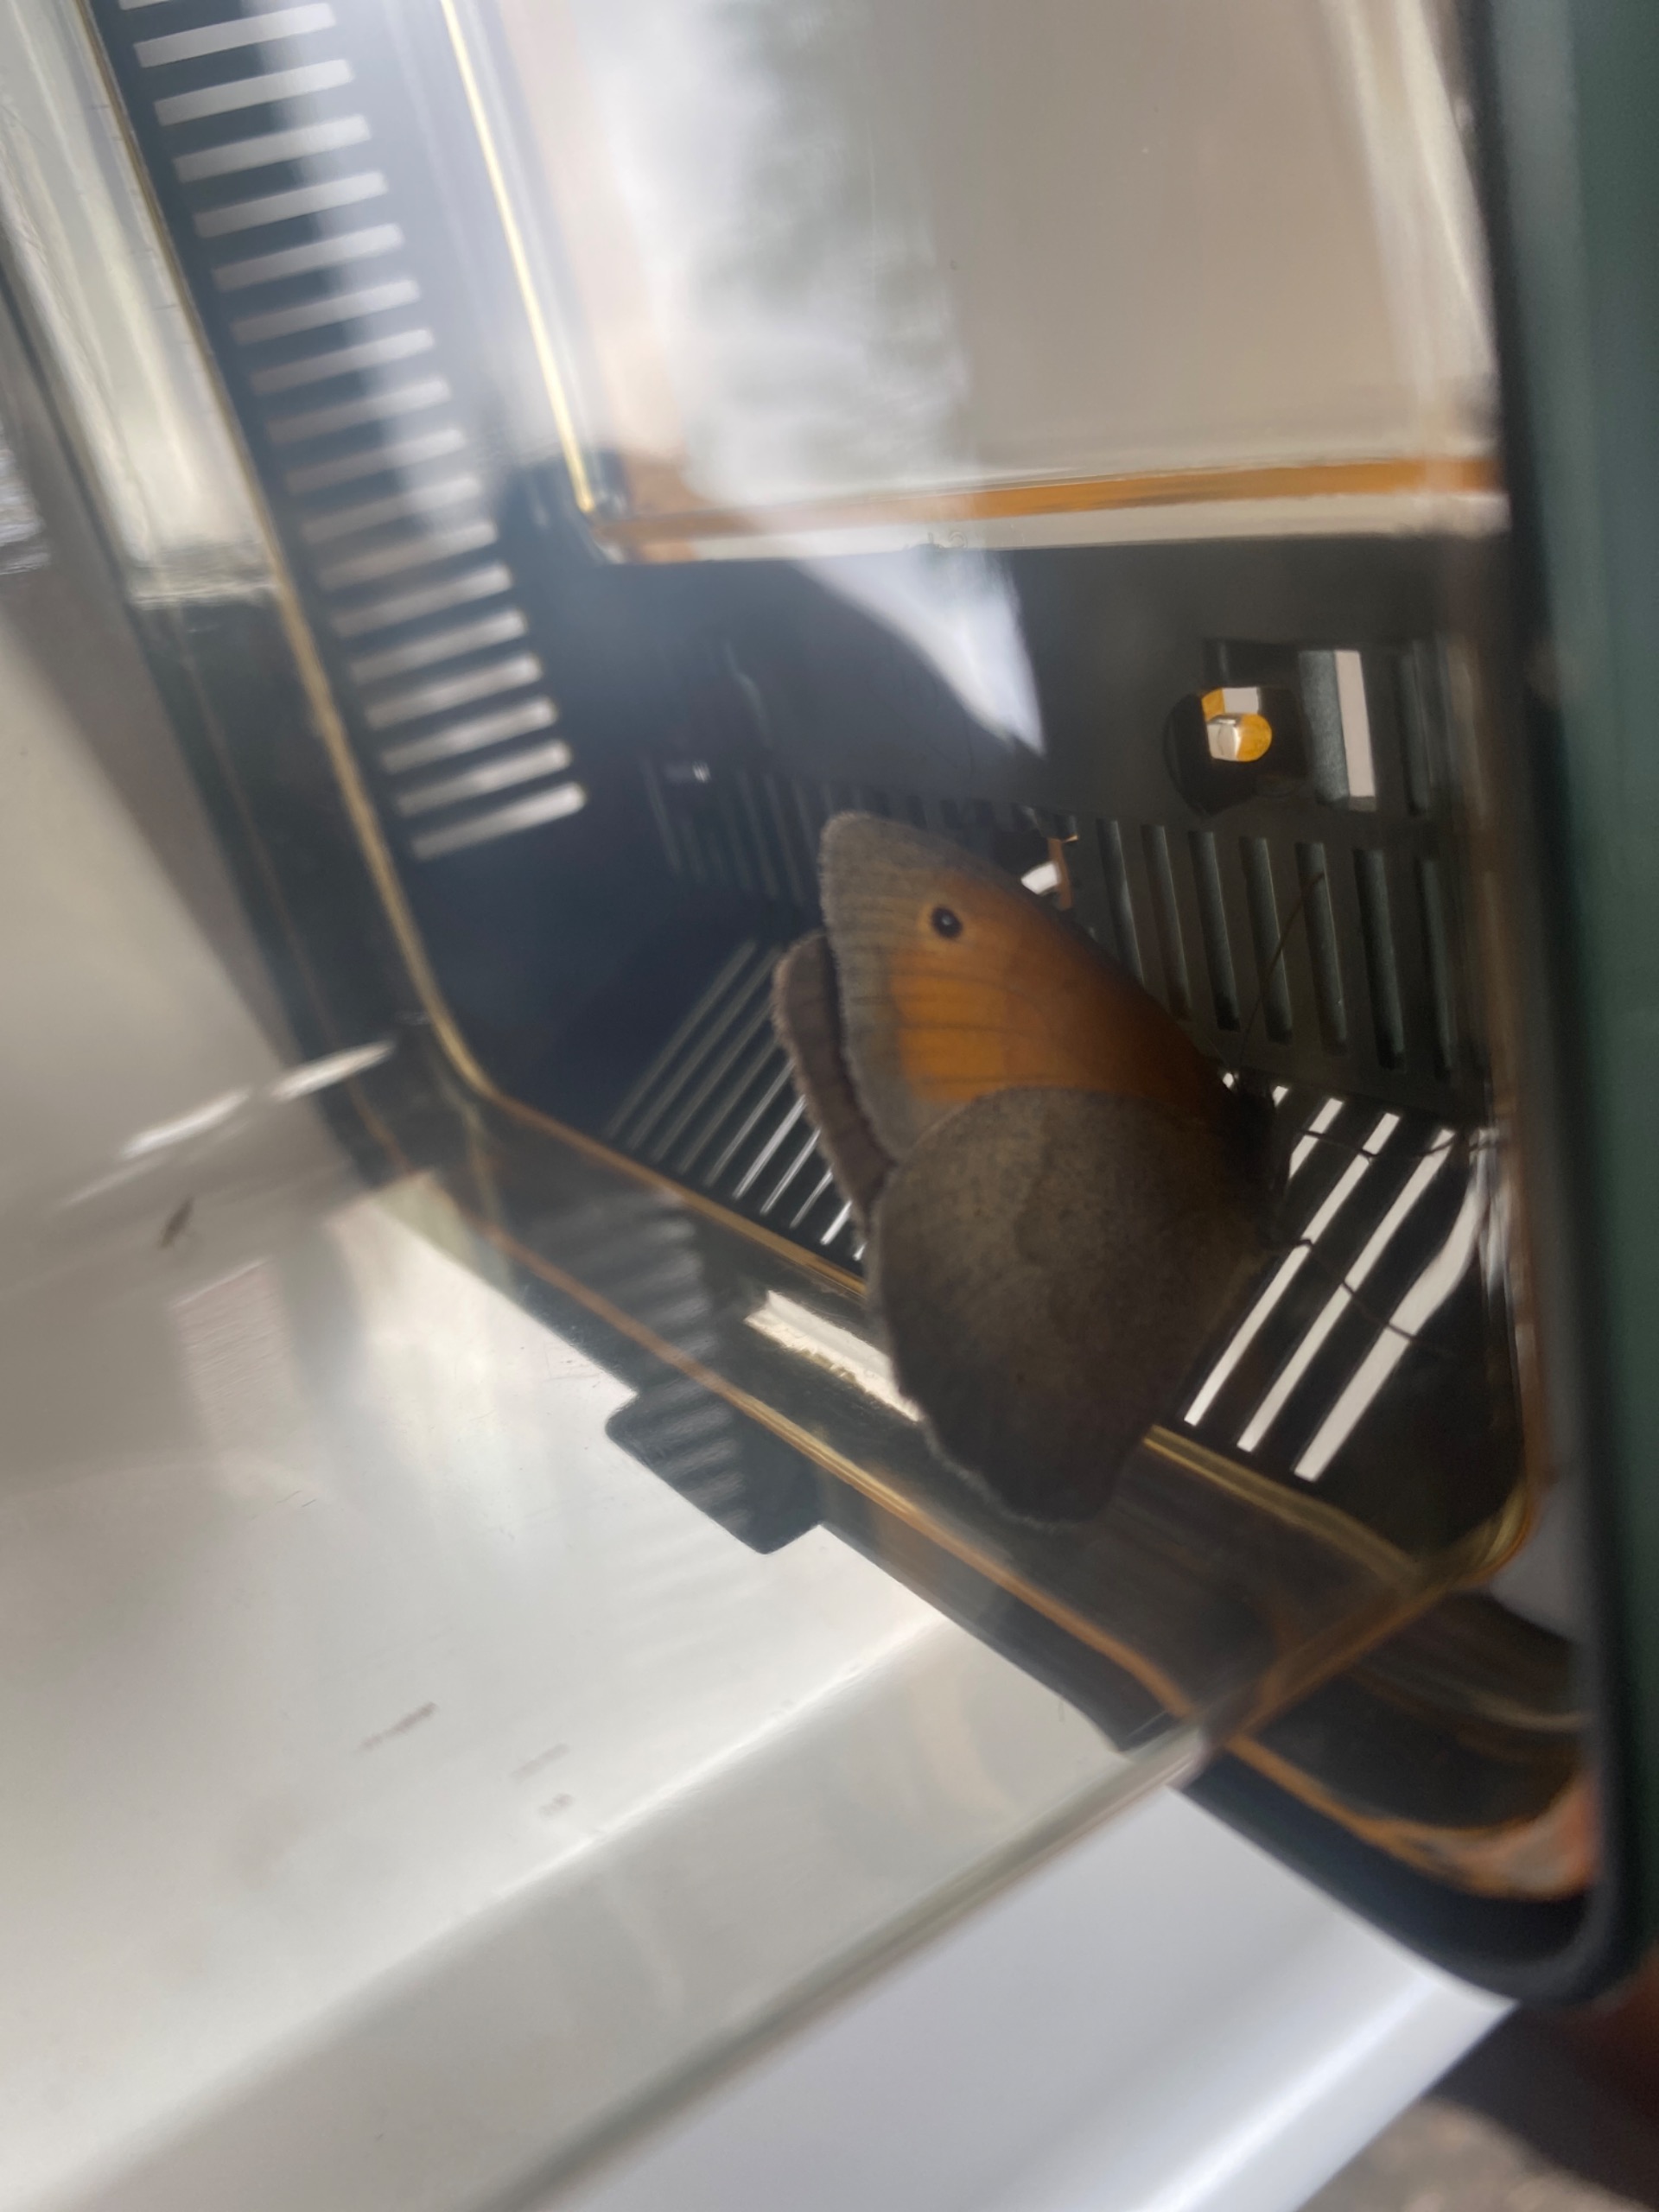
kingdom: Animalia
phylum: Arthropoda
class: Insecta
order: Lepidoptera
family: Nymphalidae
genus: Maniola
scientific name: Maniola jurtina
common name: Græsrandøje
